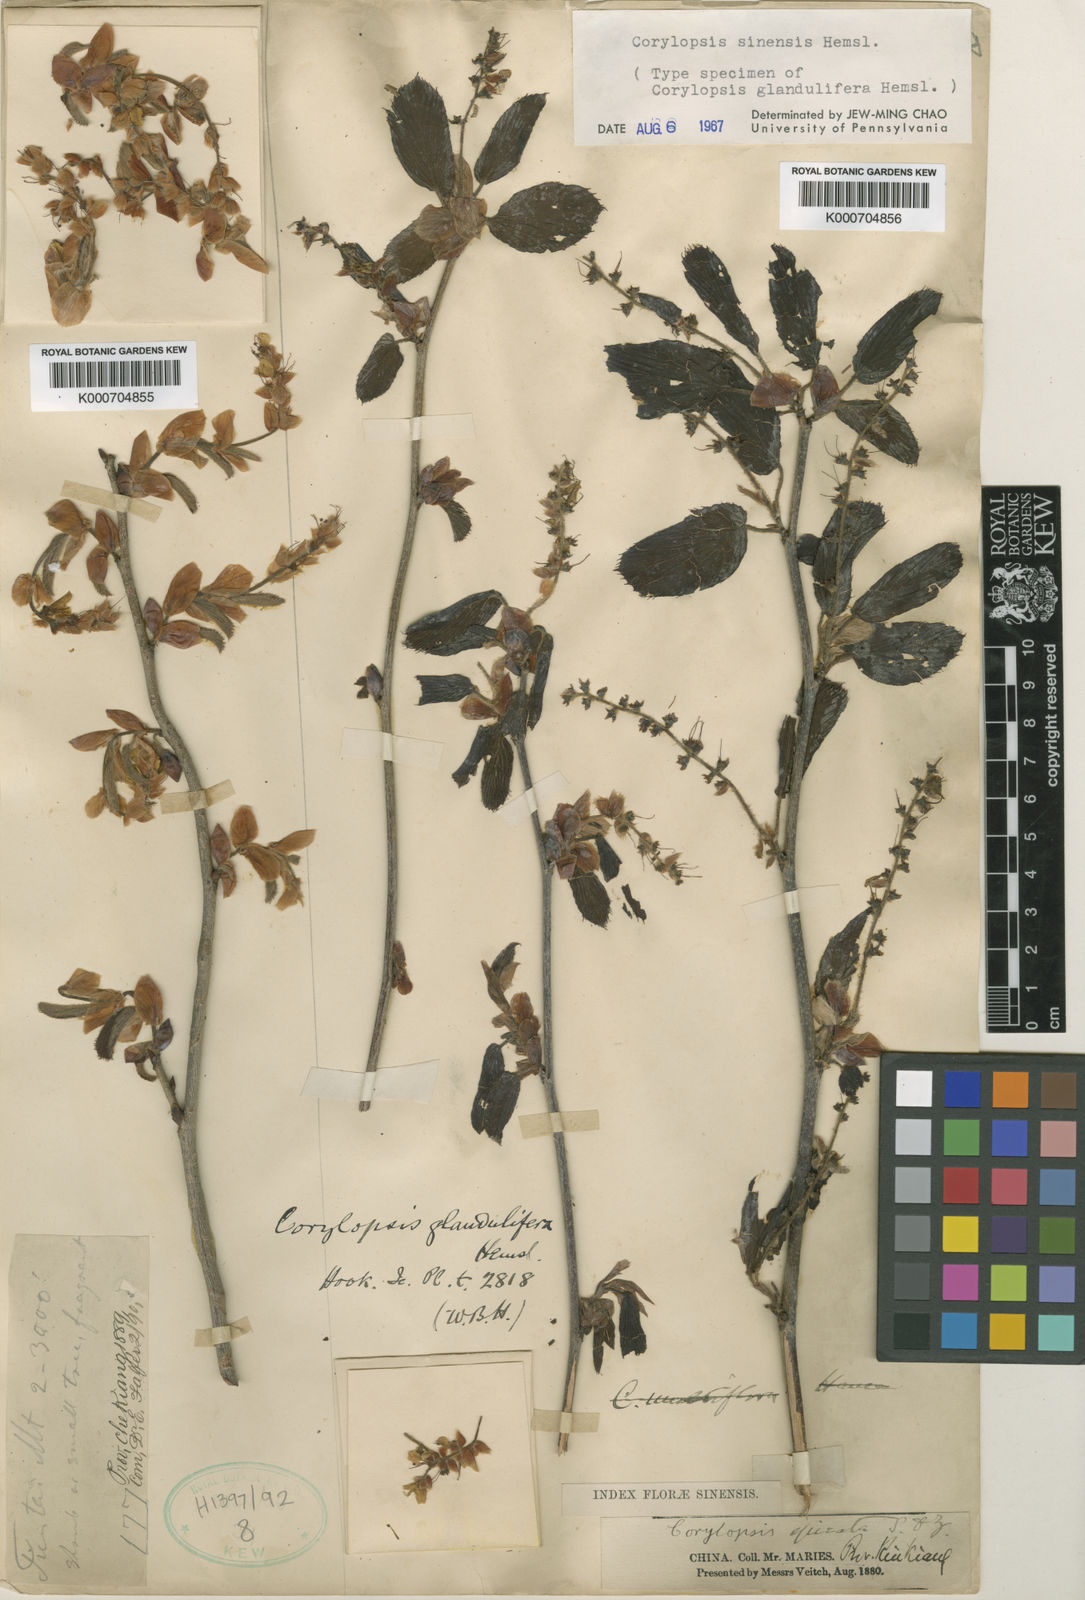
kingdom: Plantae
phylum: Tracheophyta
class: Magnoliopsida
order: Saxifragales
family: Hamamelidaceae
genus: Corylopsis
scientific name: Corylopsis sinensis
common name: Winter hazel
